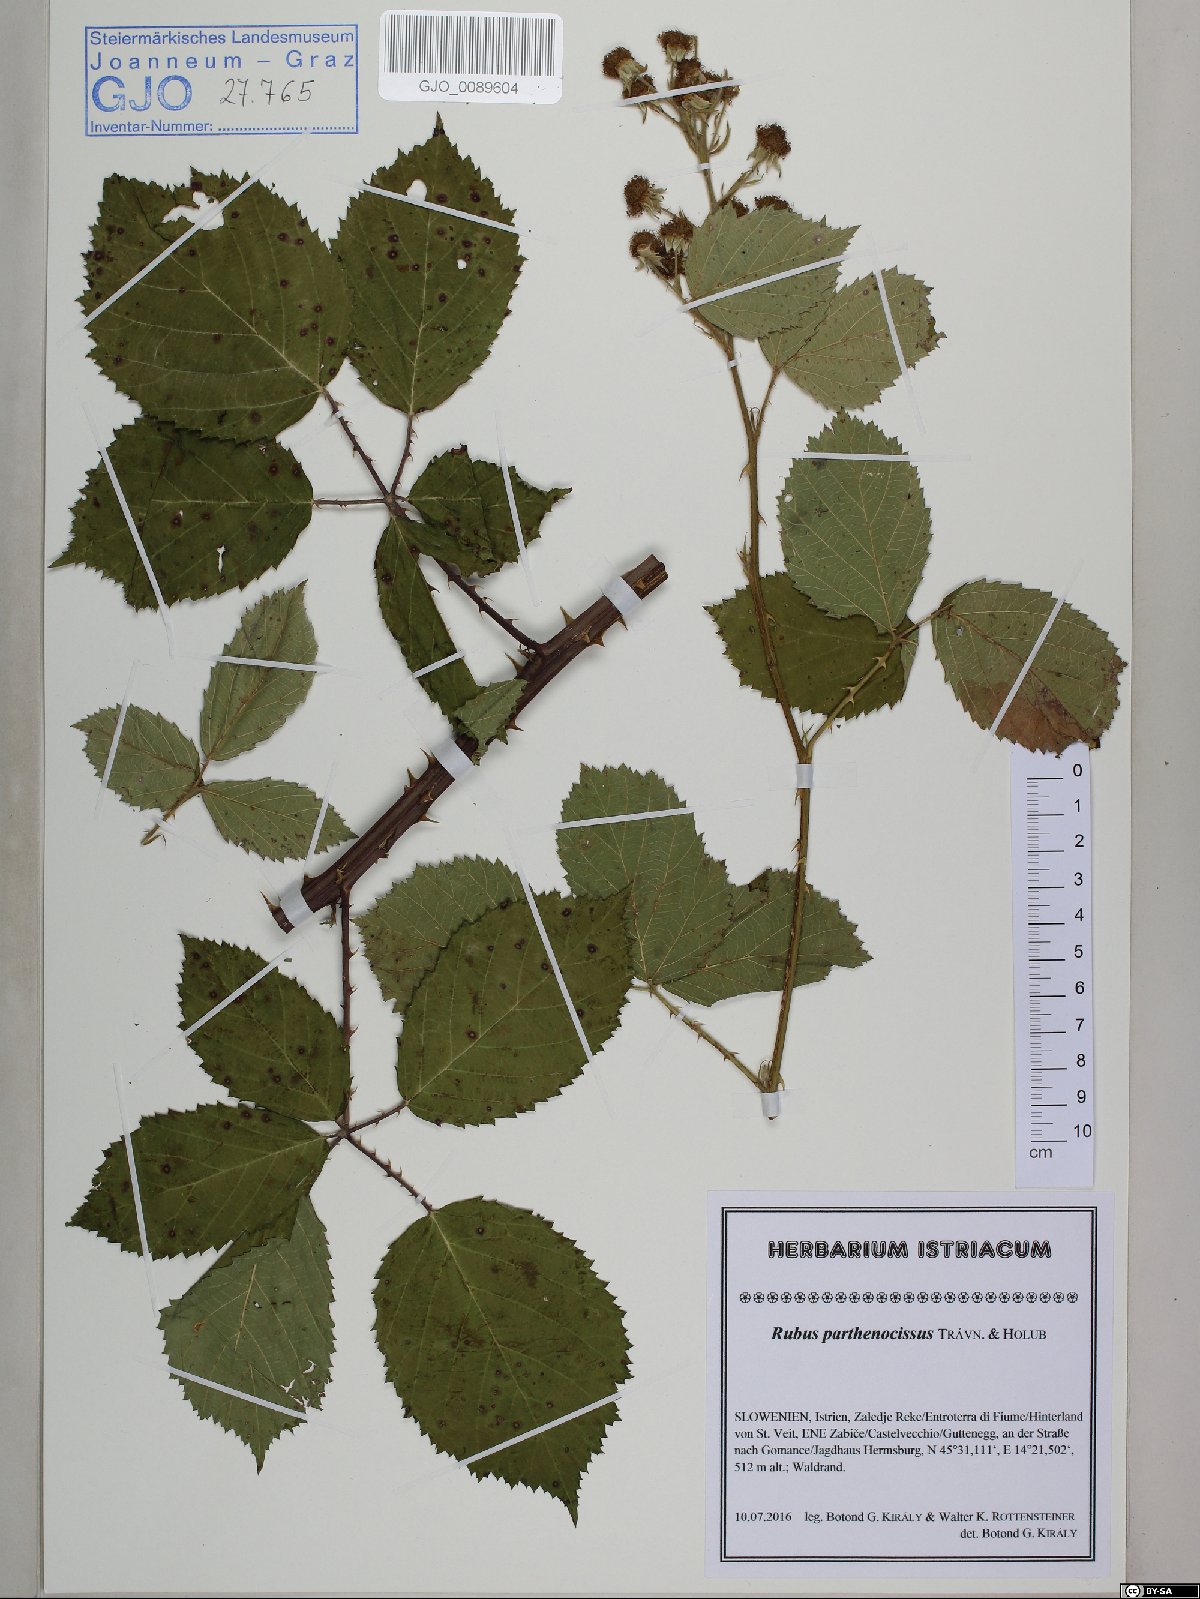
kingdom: Plantae
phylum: Tracheophyta
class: Magnoliopsida
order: Rosales
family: Rosaceae
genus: Rubus
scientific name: Rubus parthenocissus
